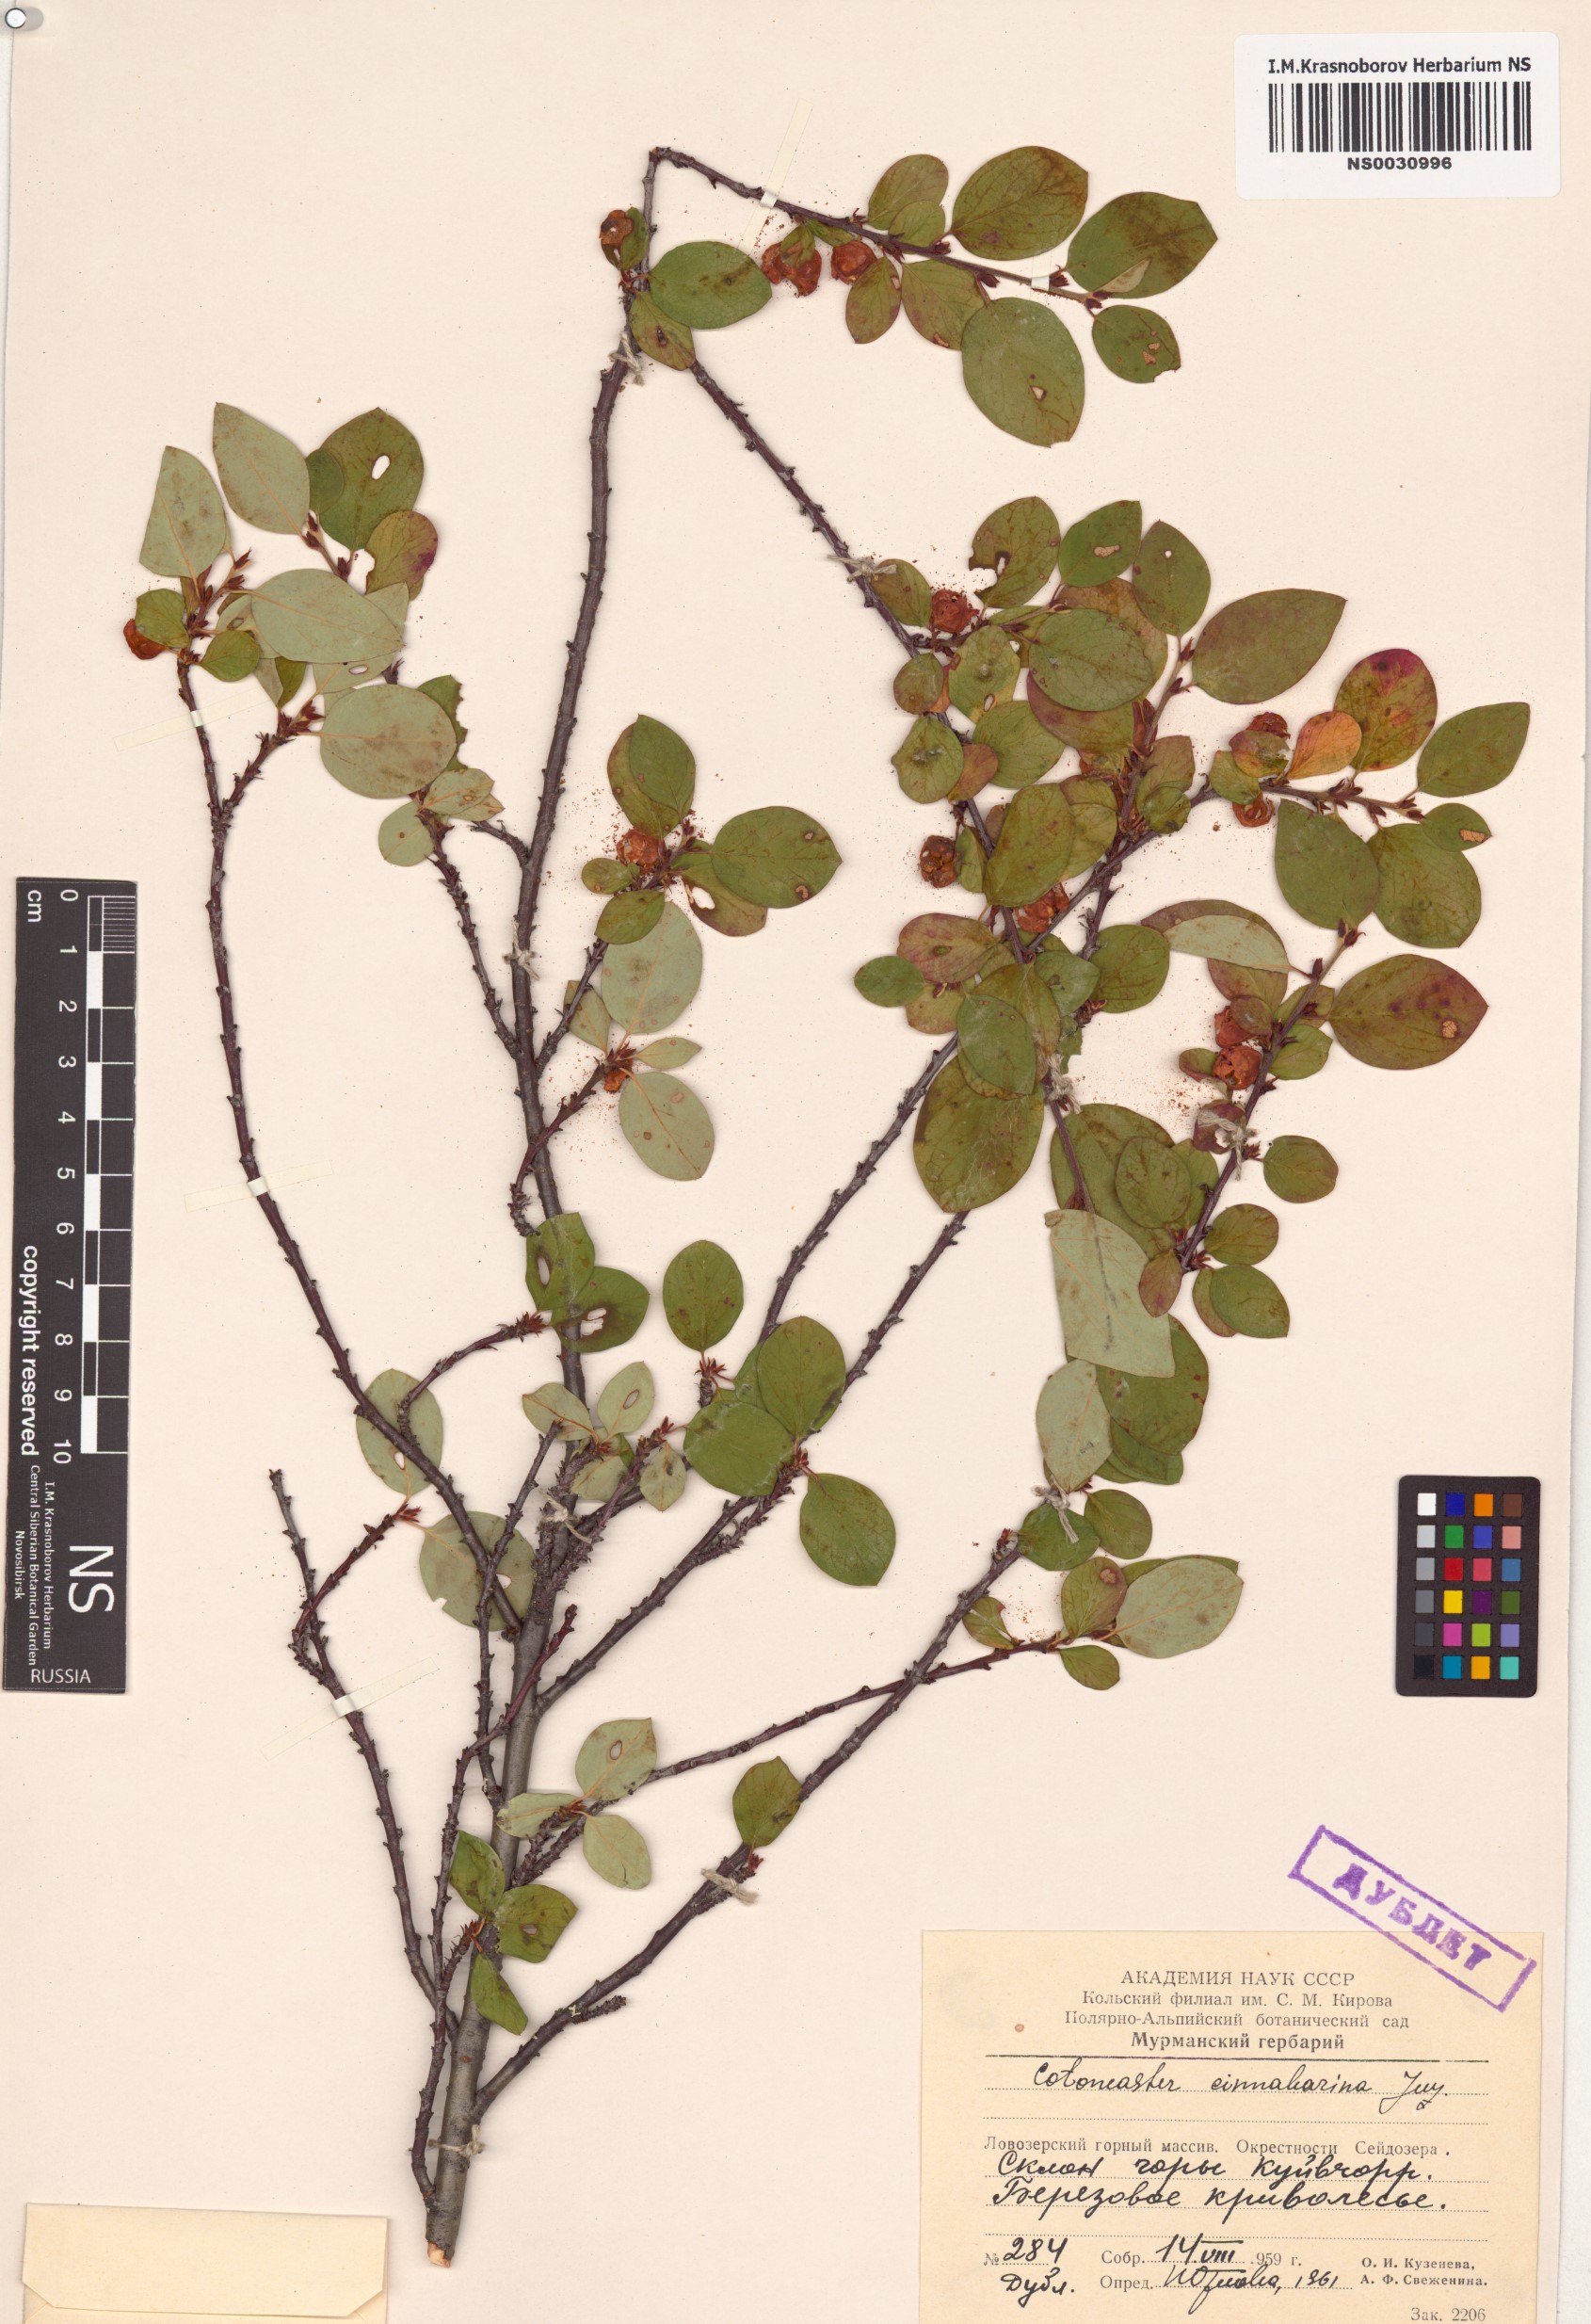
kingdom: Plantae
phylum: Tracheophyta
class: Magnoliopsida
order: Rosales
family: Rosaceae
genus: Cotoneaster
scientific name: Cotoneaster integerrimus
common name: Wild cotoneaster
